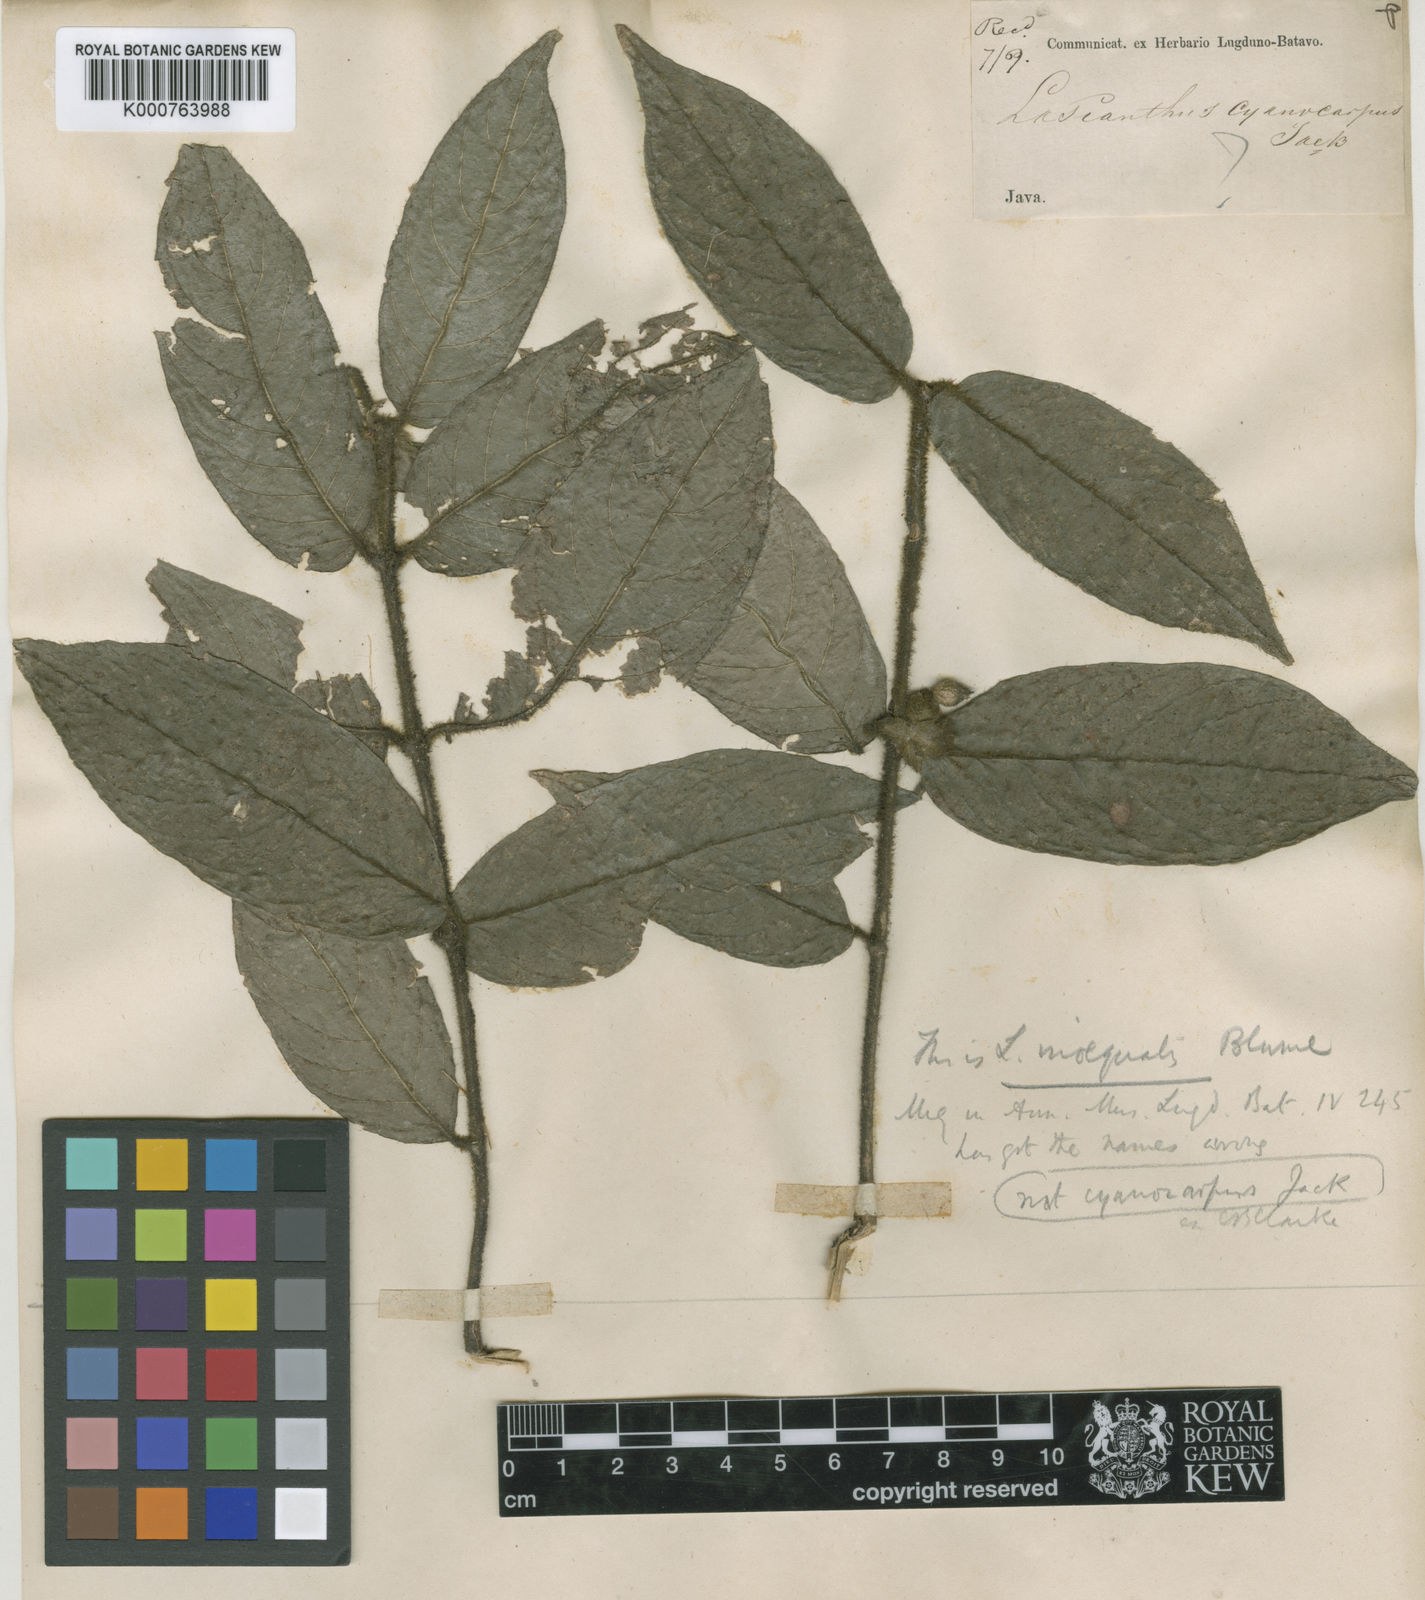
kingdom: Plantae
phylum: Tracheophyta
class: Magnoliopsida
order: Gentianales
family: Rubiaceae
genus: Lasianthus
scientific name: Lasianthus cyanocarpus
